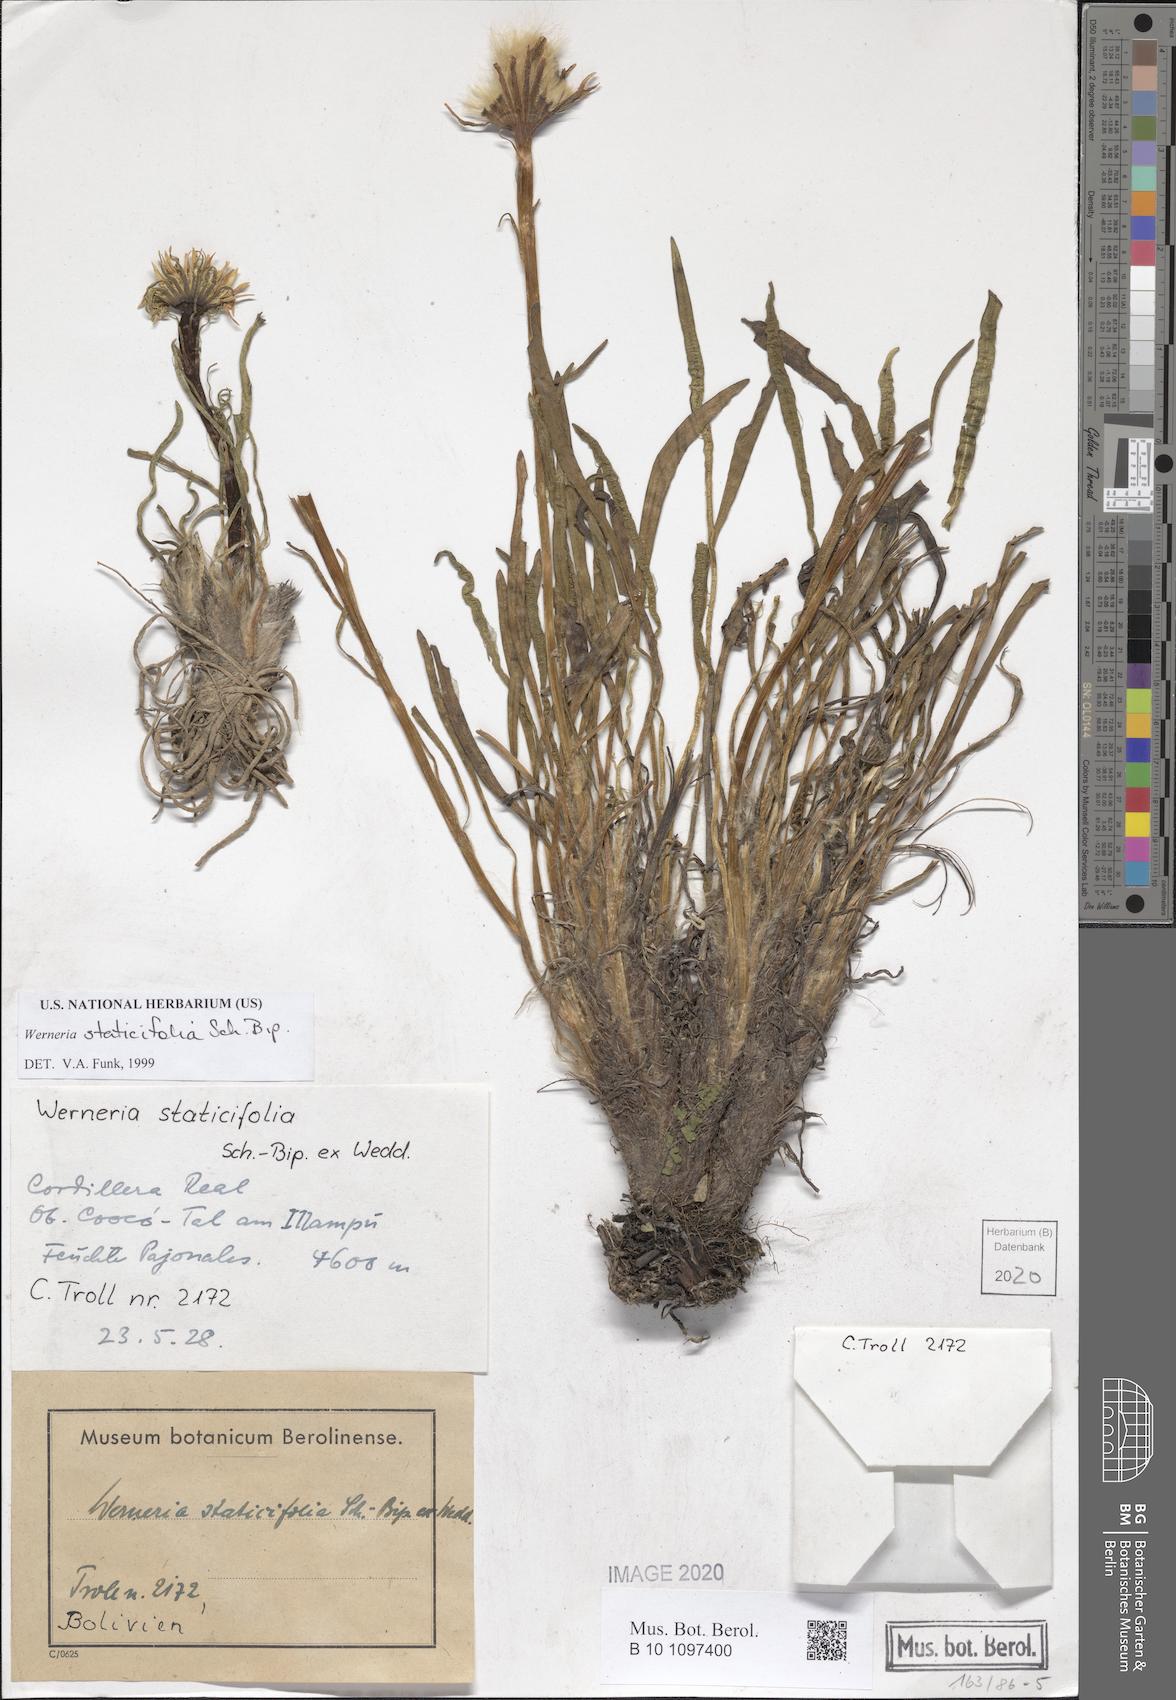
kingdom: Plantae
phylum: Tracheophyta
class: Magnoliopsida
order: Asterales
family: Asteraceae
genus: Rockhausenia
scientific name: Rockhausenia staticifolia
